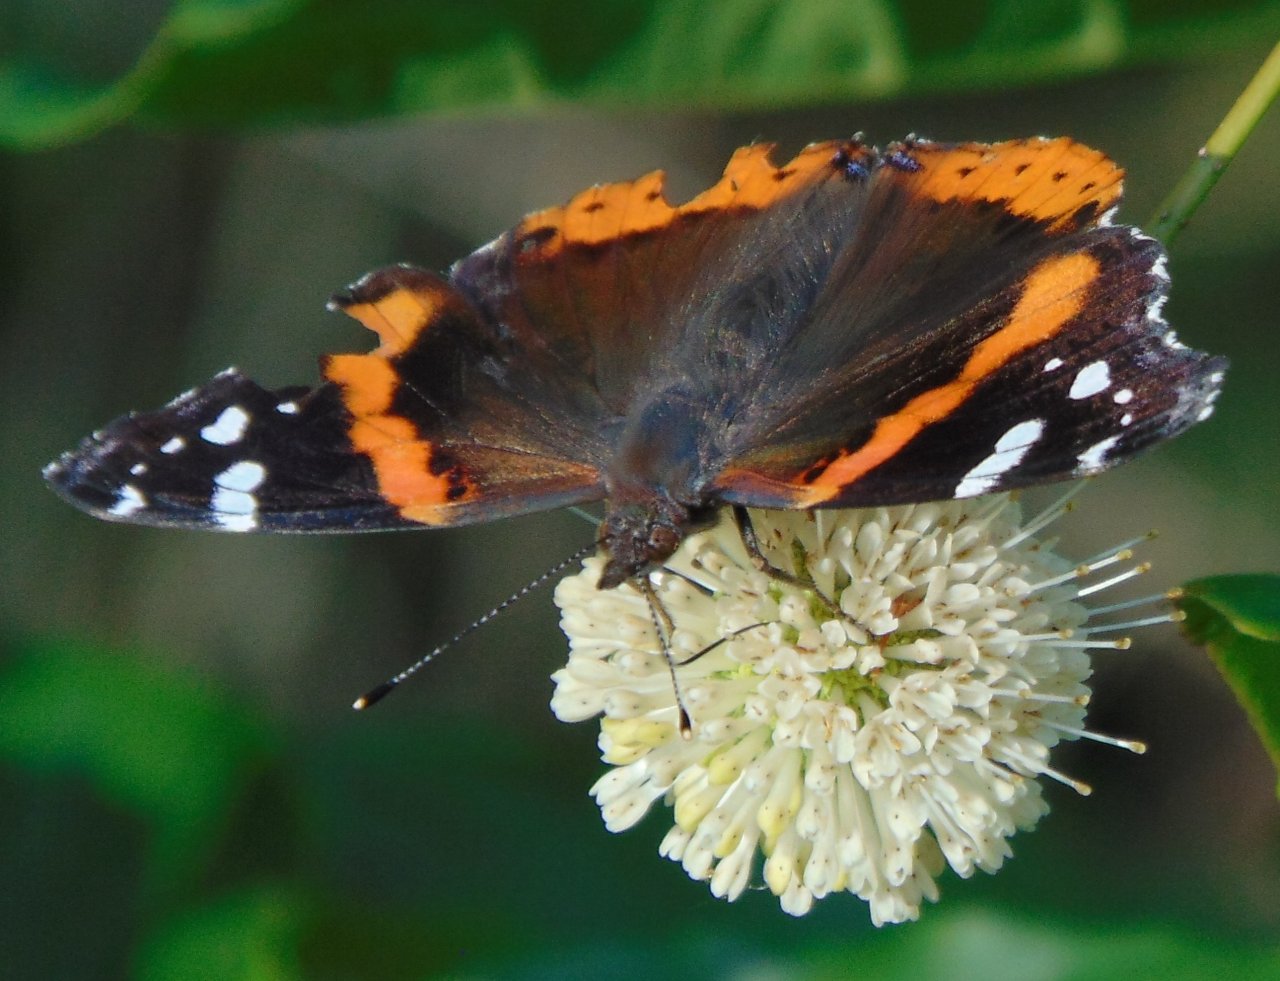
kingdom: Animalia
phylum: Arthropoda
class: Insecta
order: Lepidoptera
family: Nymphalidae
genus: Vanessa
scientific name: Vanessa atalanta
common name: Red Admiral
